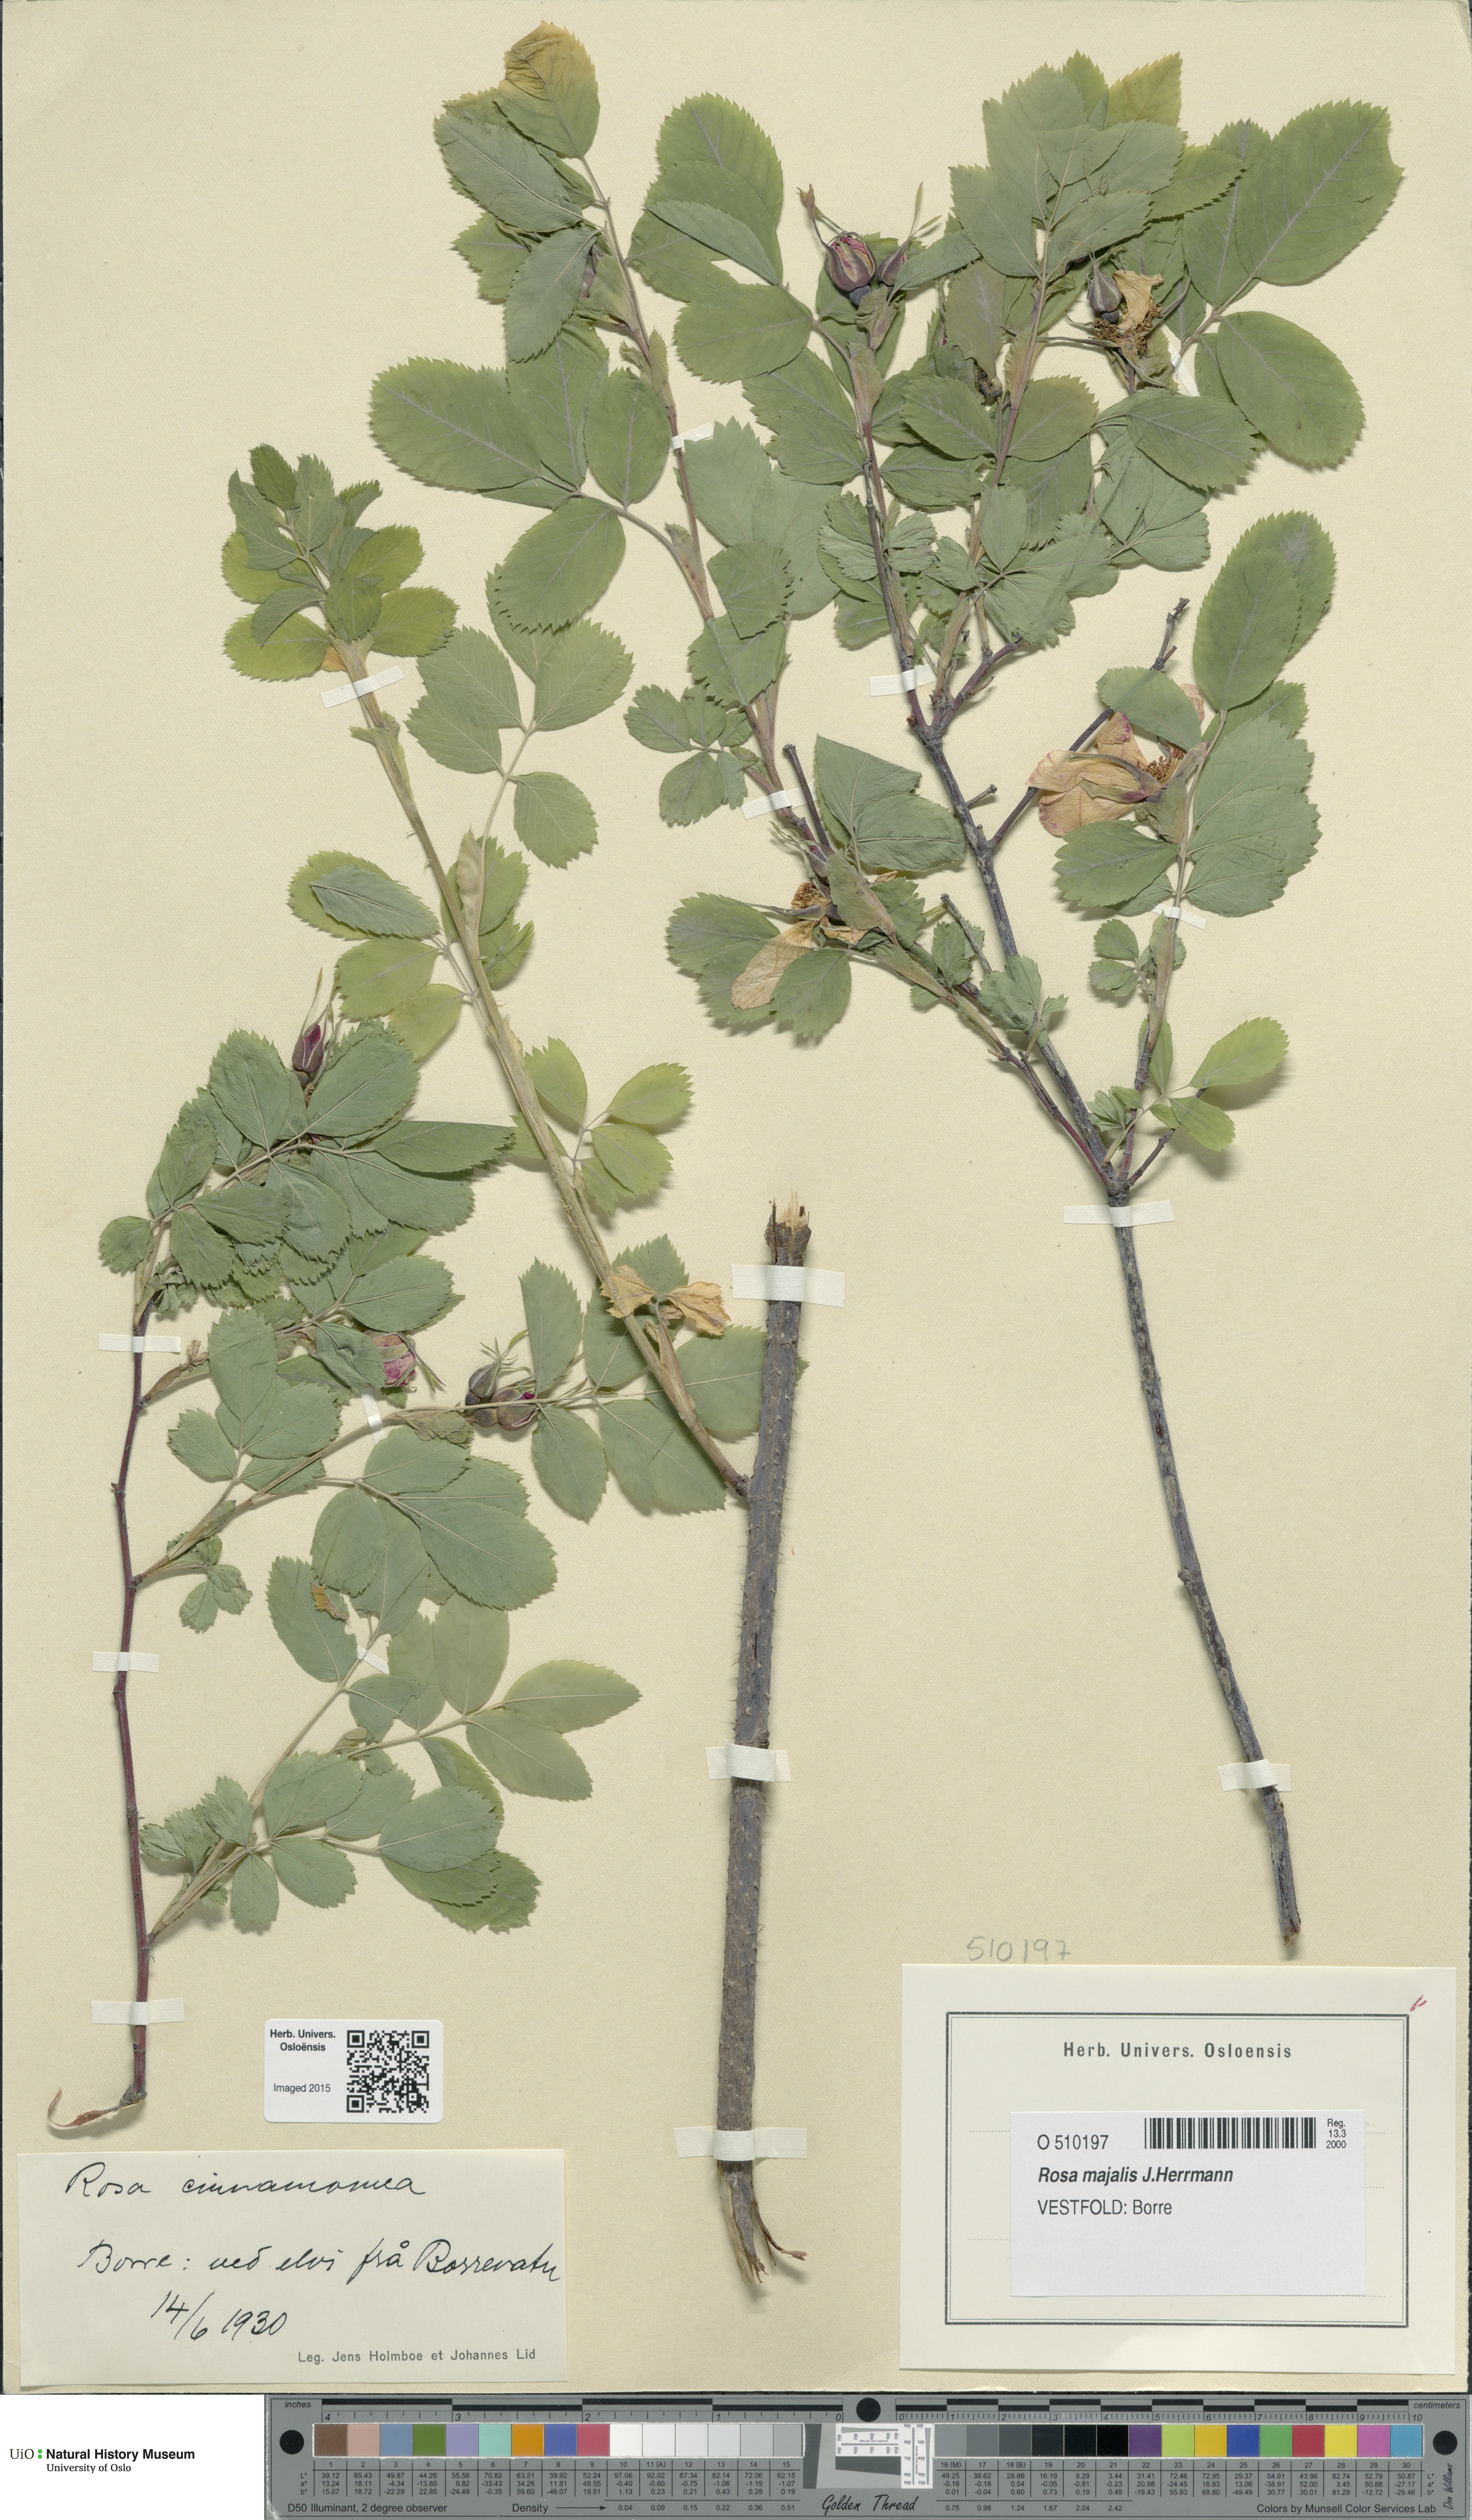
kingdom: Plantae
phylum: Tracheophyta
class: Magnoliopsida
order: Rosales
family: Rosaceae
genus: Rosa
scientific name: Rosa pendulina
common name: Alpine rose
